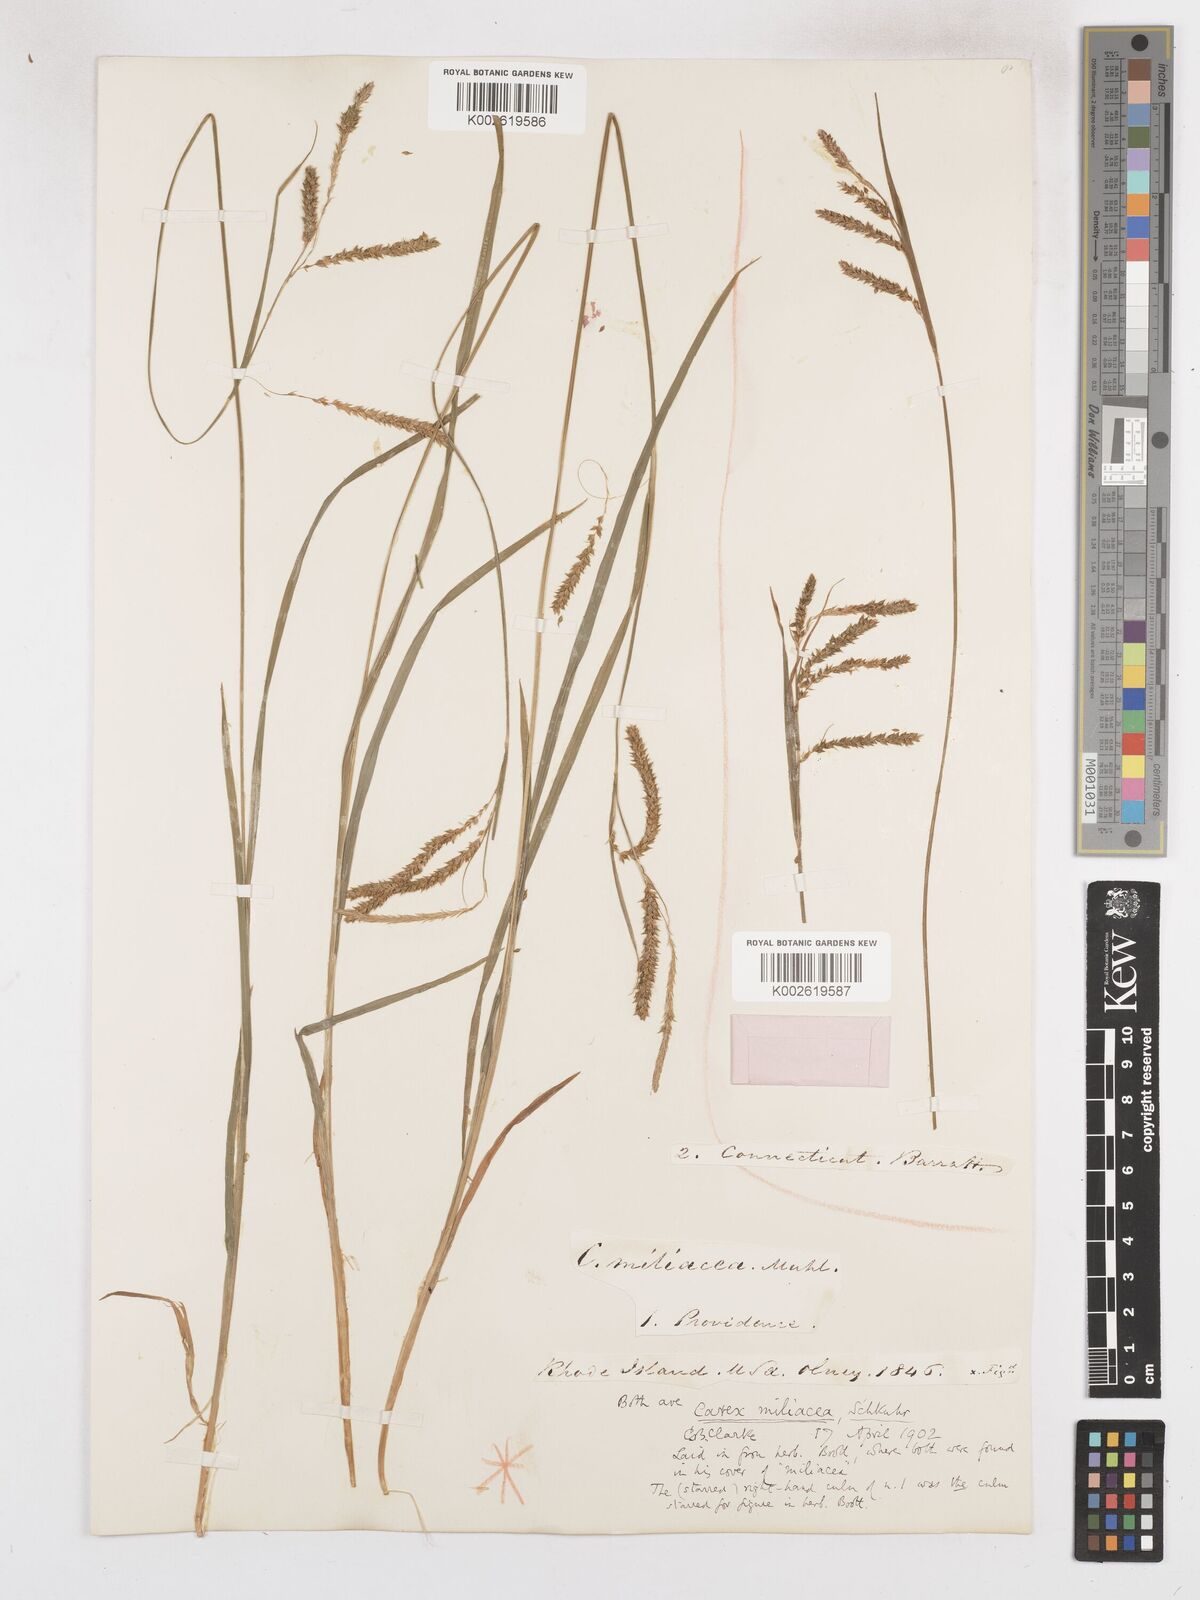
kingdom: Plantae
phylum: Tracheophyta
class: Liliopsida
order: Poales
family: Cyperaceae
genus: Carex
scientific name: Carex prasina
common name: Drooping sedge
